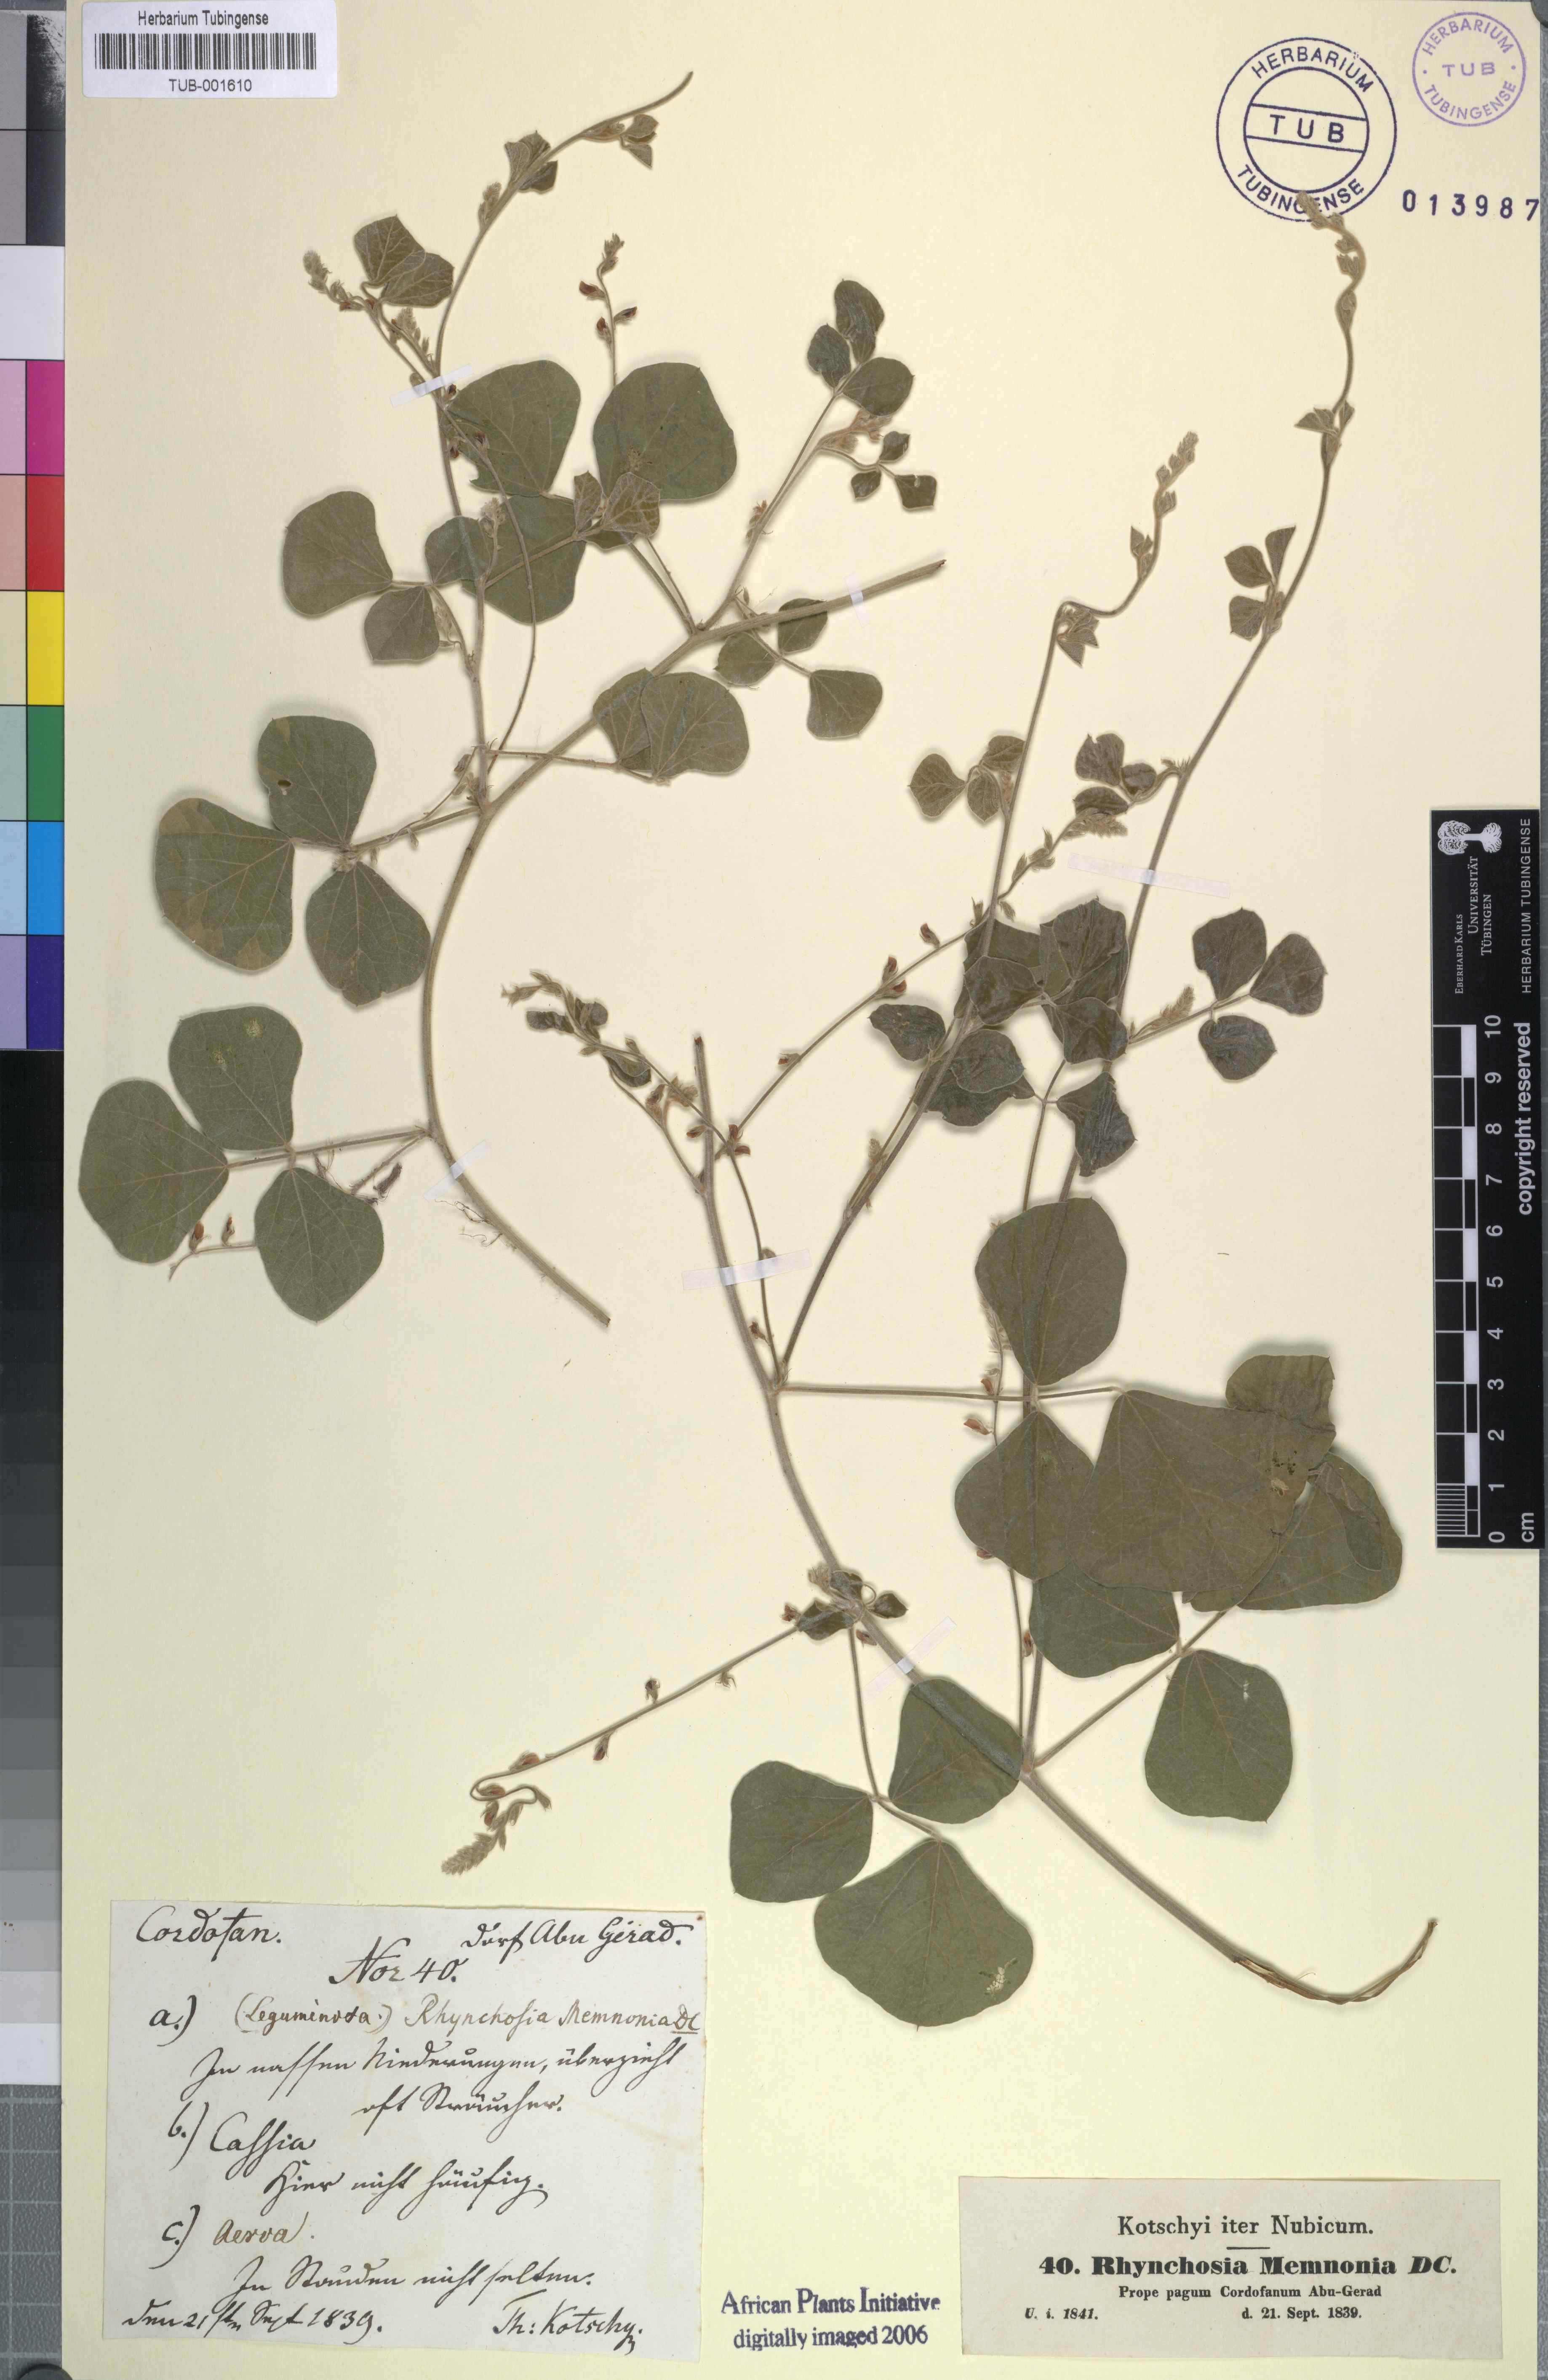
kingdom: Plantae
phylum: Tracheophyta
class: Magnoliopsida
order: Fabales
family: Fabaceae
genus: Rhynchosia
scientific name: Rhynchosia minima
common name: Least snoutbean
